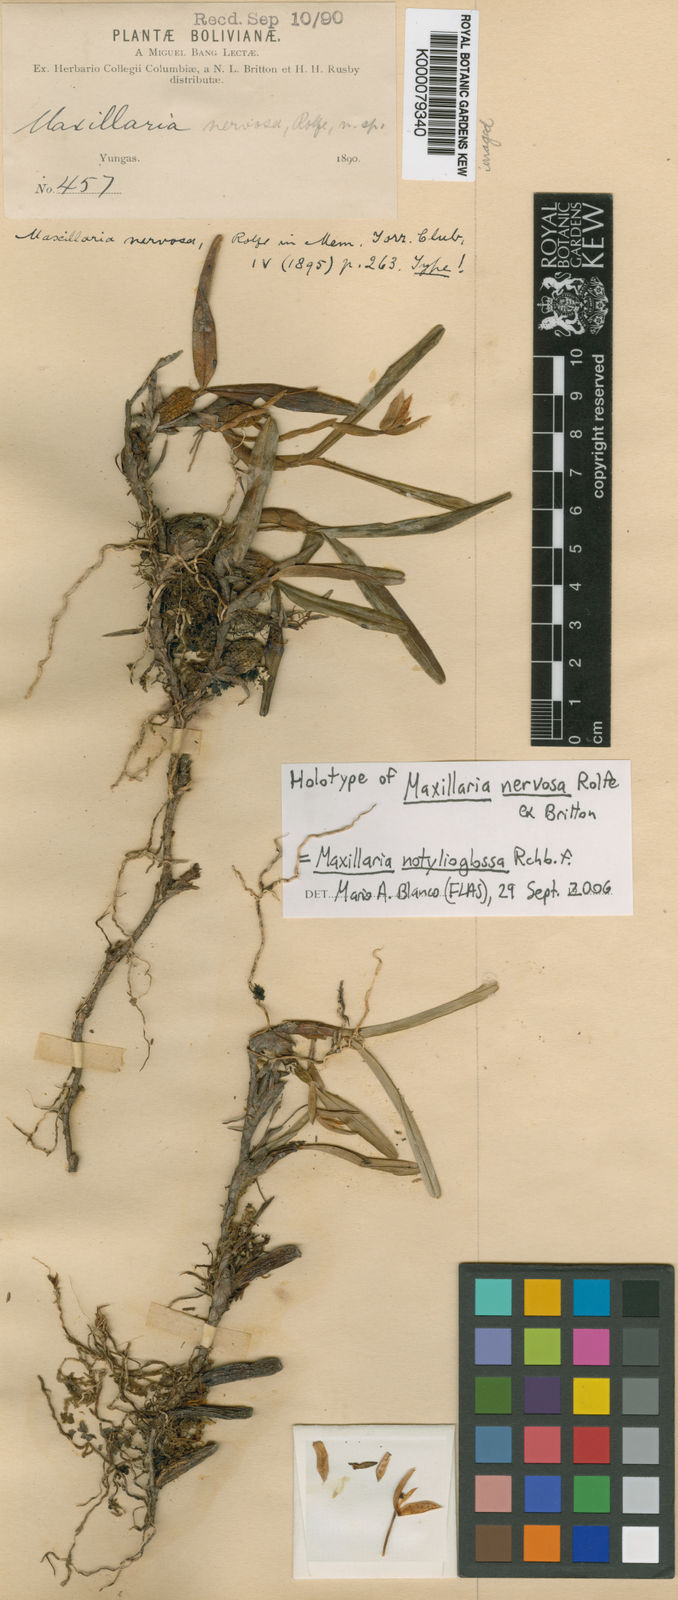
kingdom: Plantae
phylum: Tracheophyta
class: Liliopsida
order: Asparagales
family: Orchidaceae
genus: Maxillaria
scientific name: Maxillaria notylioglossa
